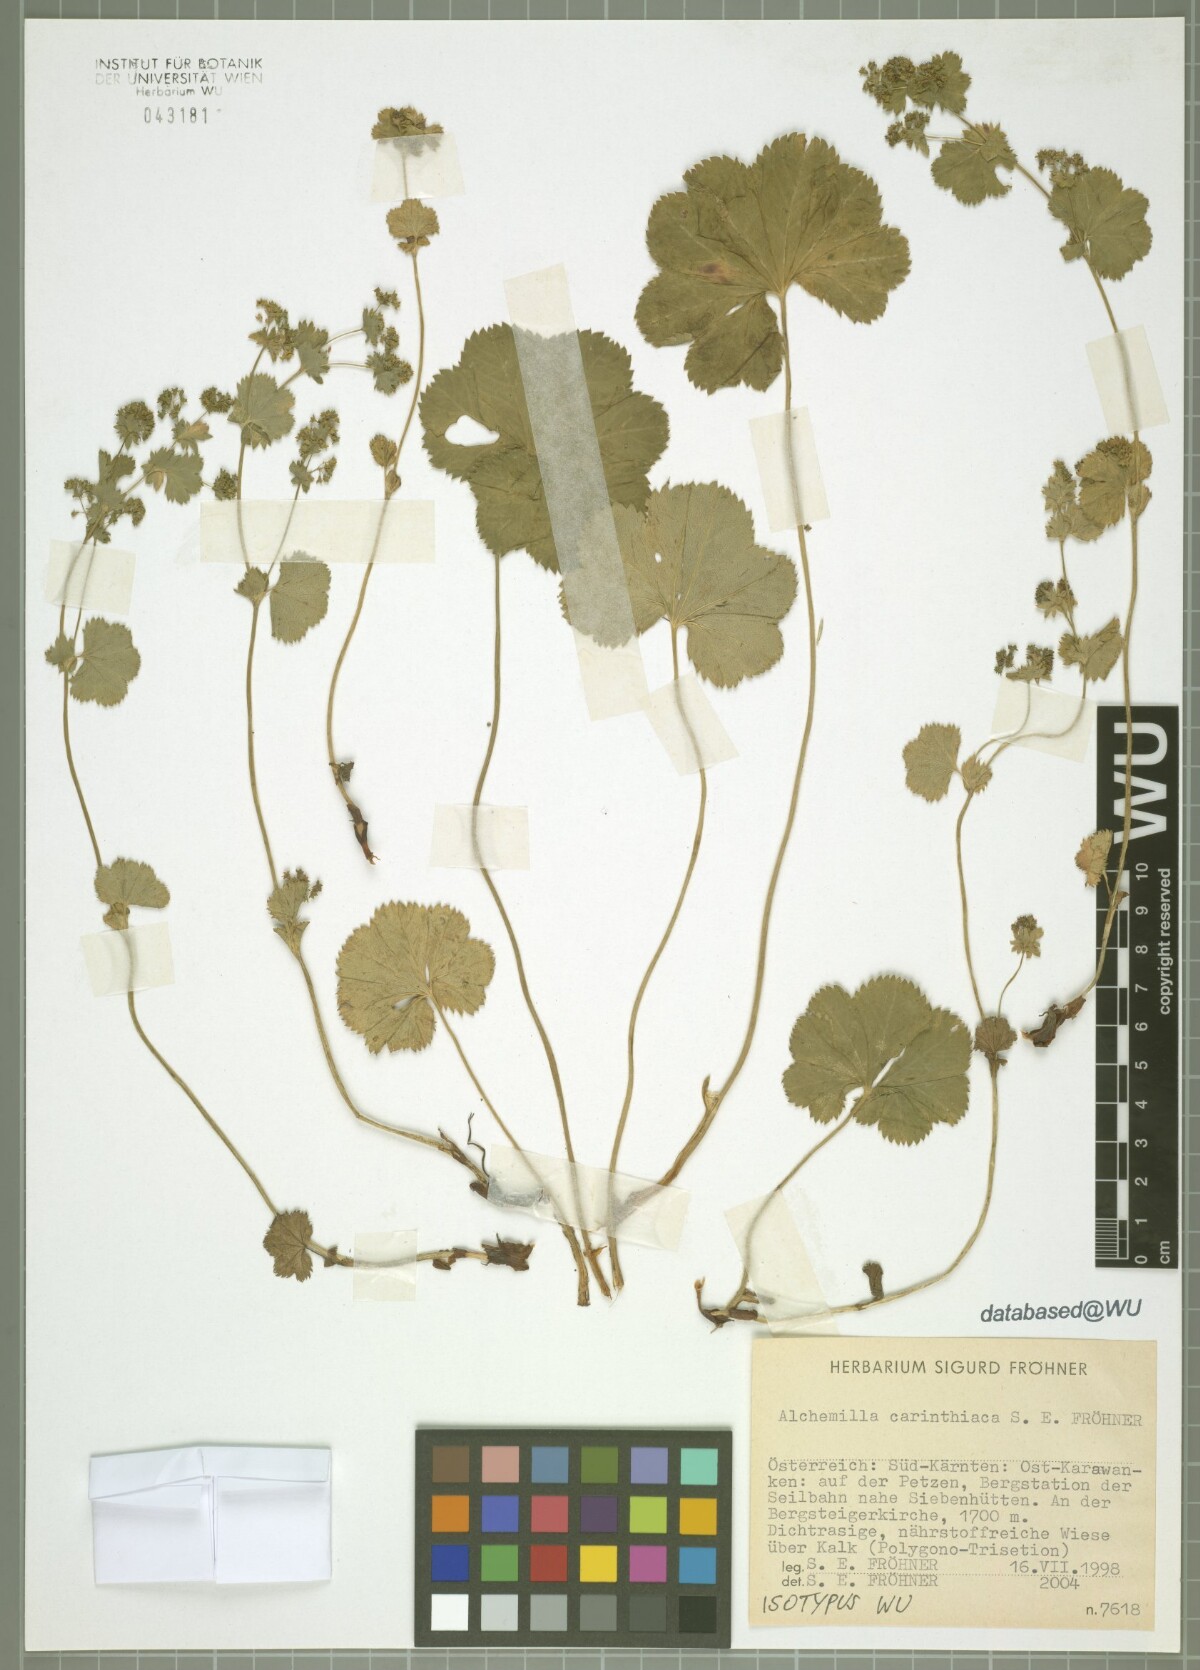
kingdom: Plantae
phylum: Tracheophyta
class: Magnoliopsida
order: Rosales
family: Rosaceae
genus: Alchemilla
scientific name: Alchemilla carinthiaca
